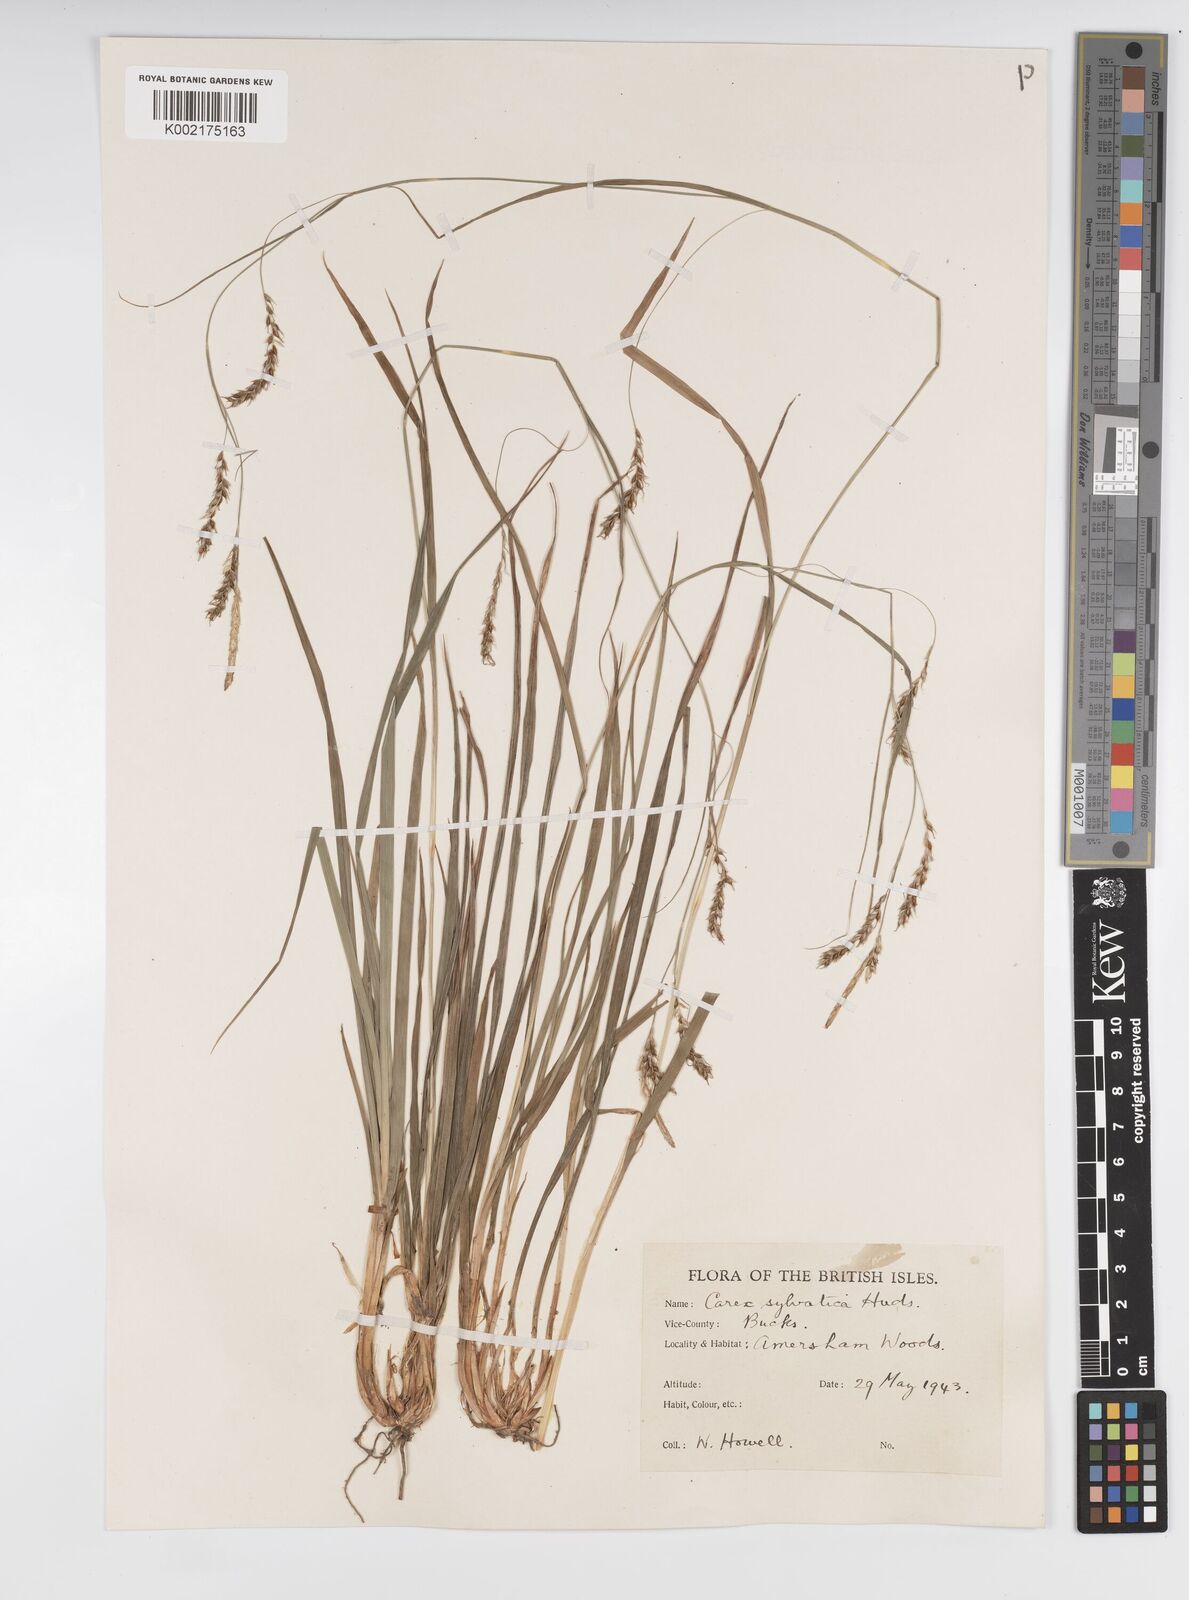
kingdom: Plantae
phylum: Tracheophyta
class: Liliopsida
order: Poales
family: Cyperaceae
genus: Carex
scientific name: Carex sylvatica
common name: Wood-sedge
